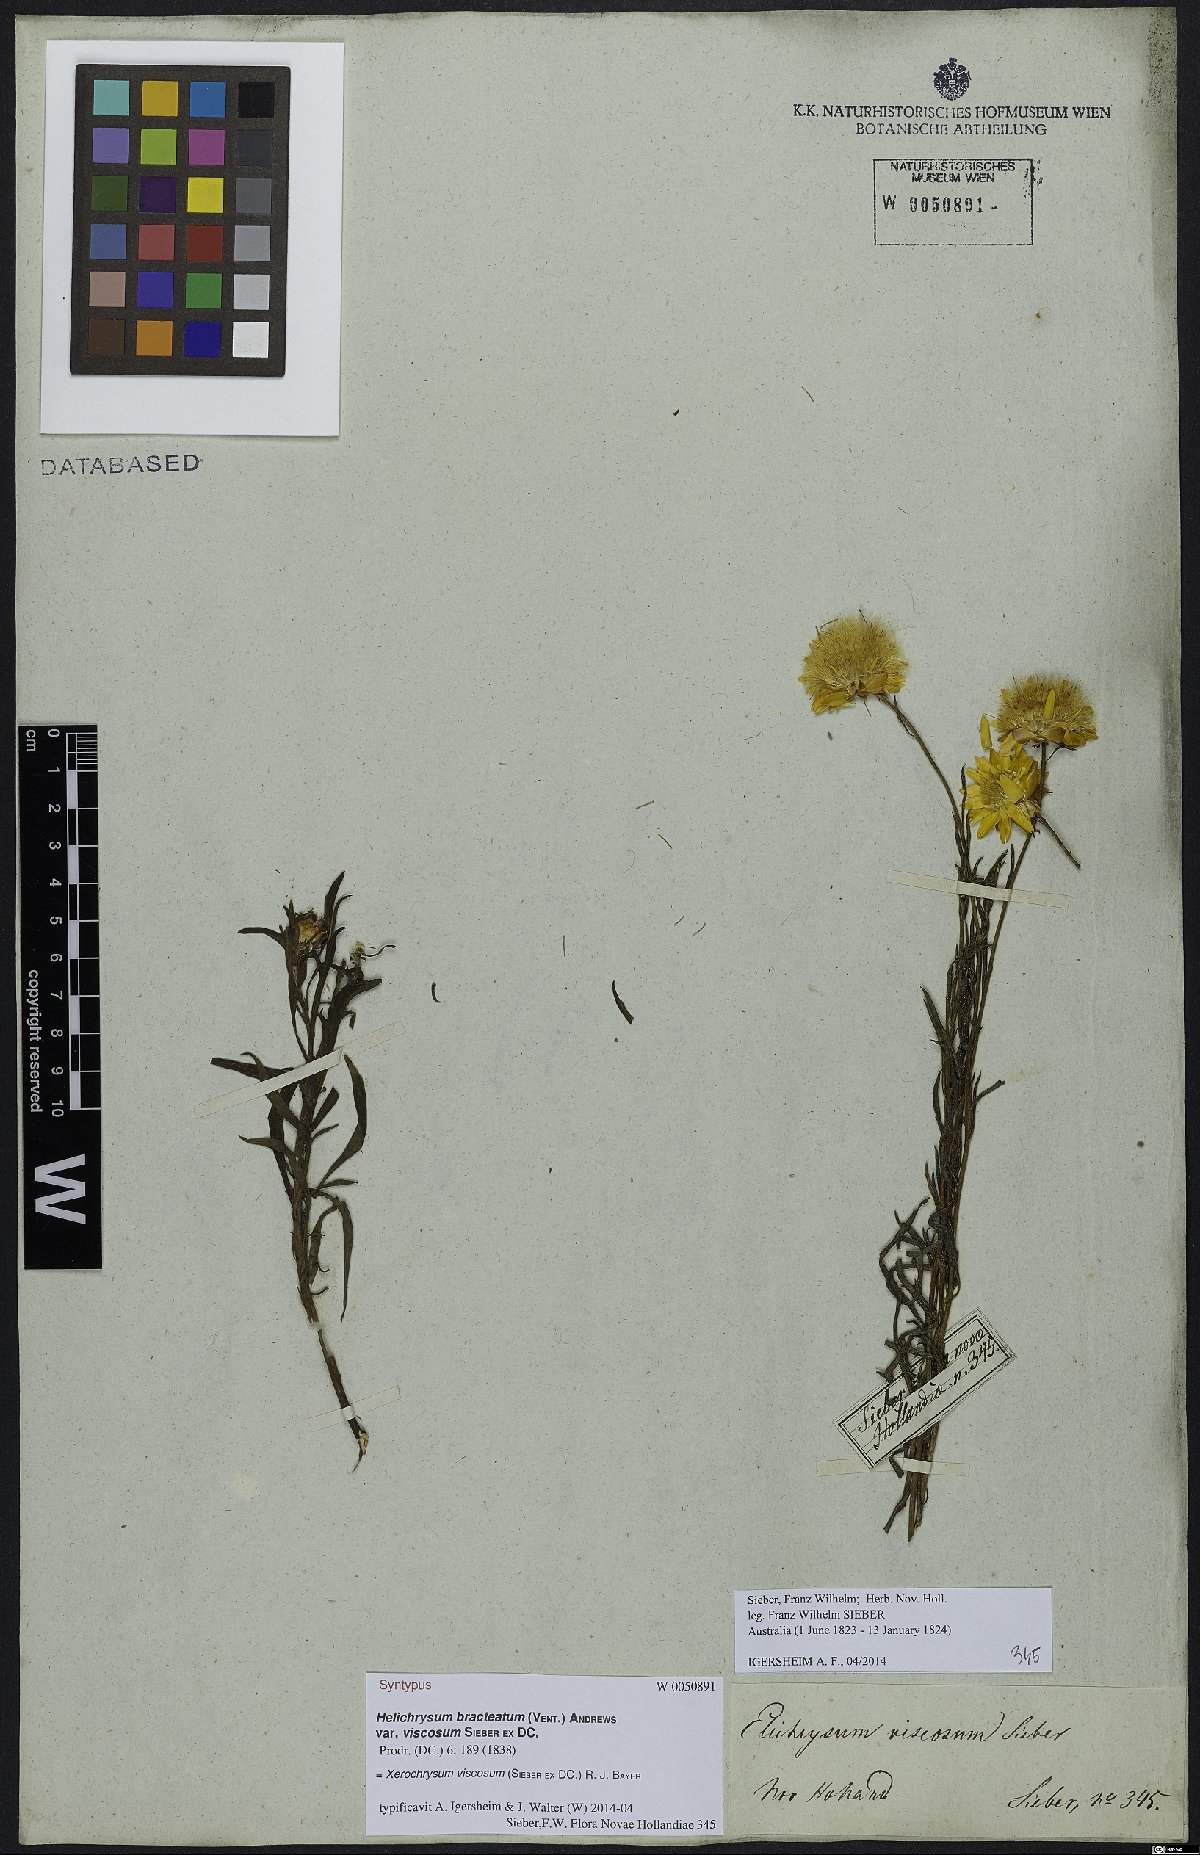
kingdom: Plantae
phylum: Tracheophyta
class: Magnoliopsida
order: Asterales
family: Asteraceae
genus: Xerochrysum
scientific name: Xerochrysum viscosum
